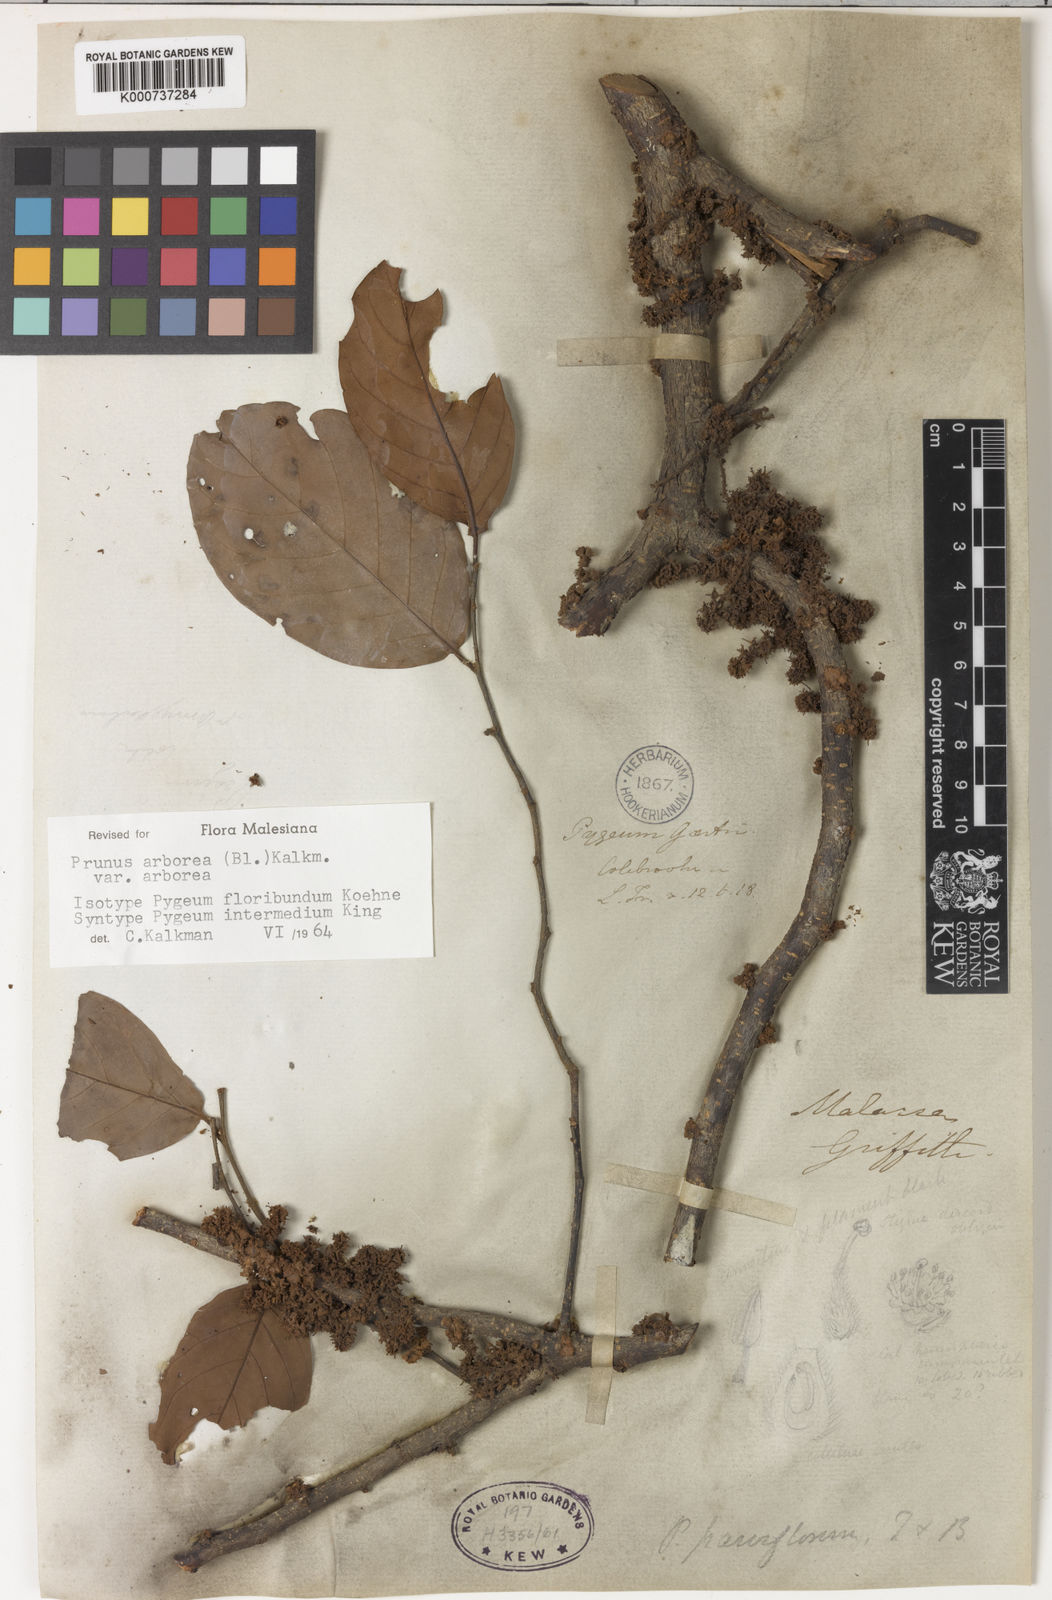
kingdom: Plantae
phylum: Tracheophyta
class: Magnoliopsida
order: Rosales
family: Rosaceae
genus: Prunus
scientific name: Prunus arborea
